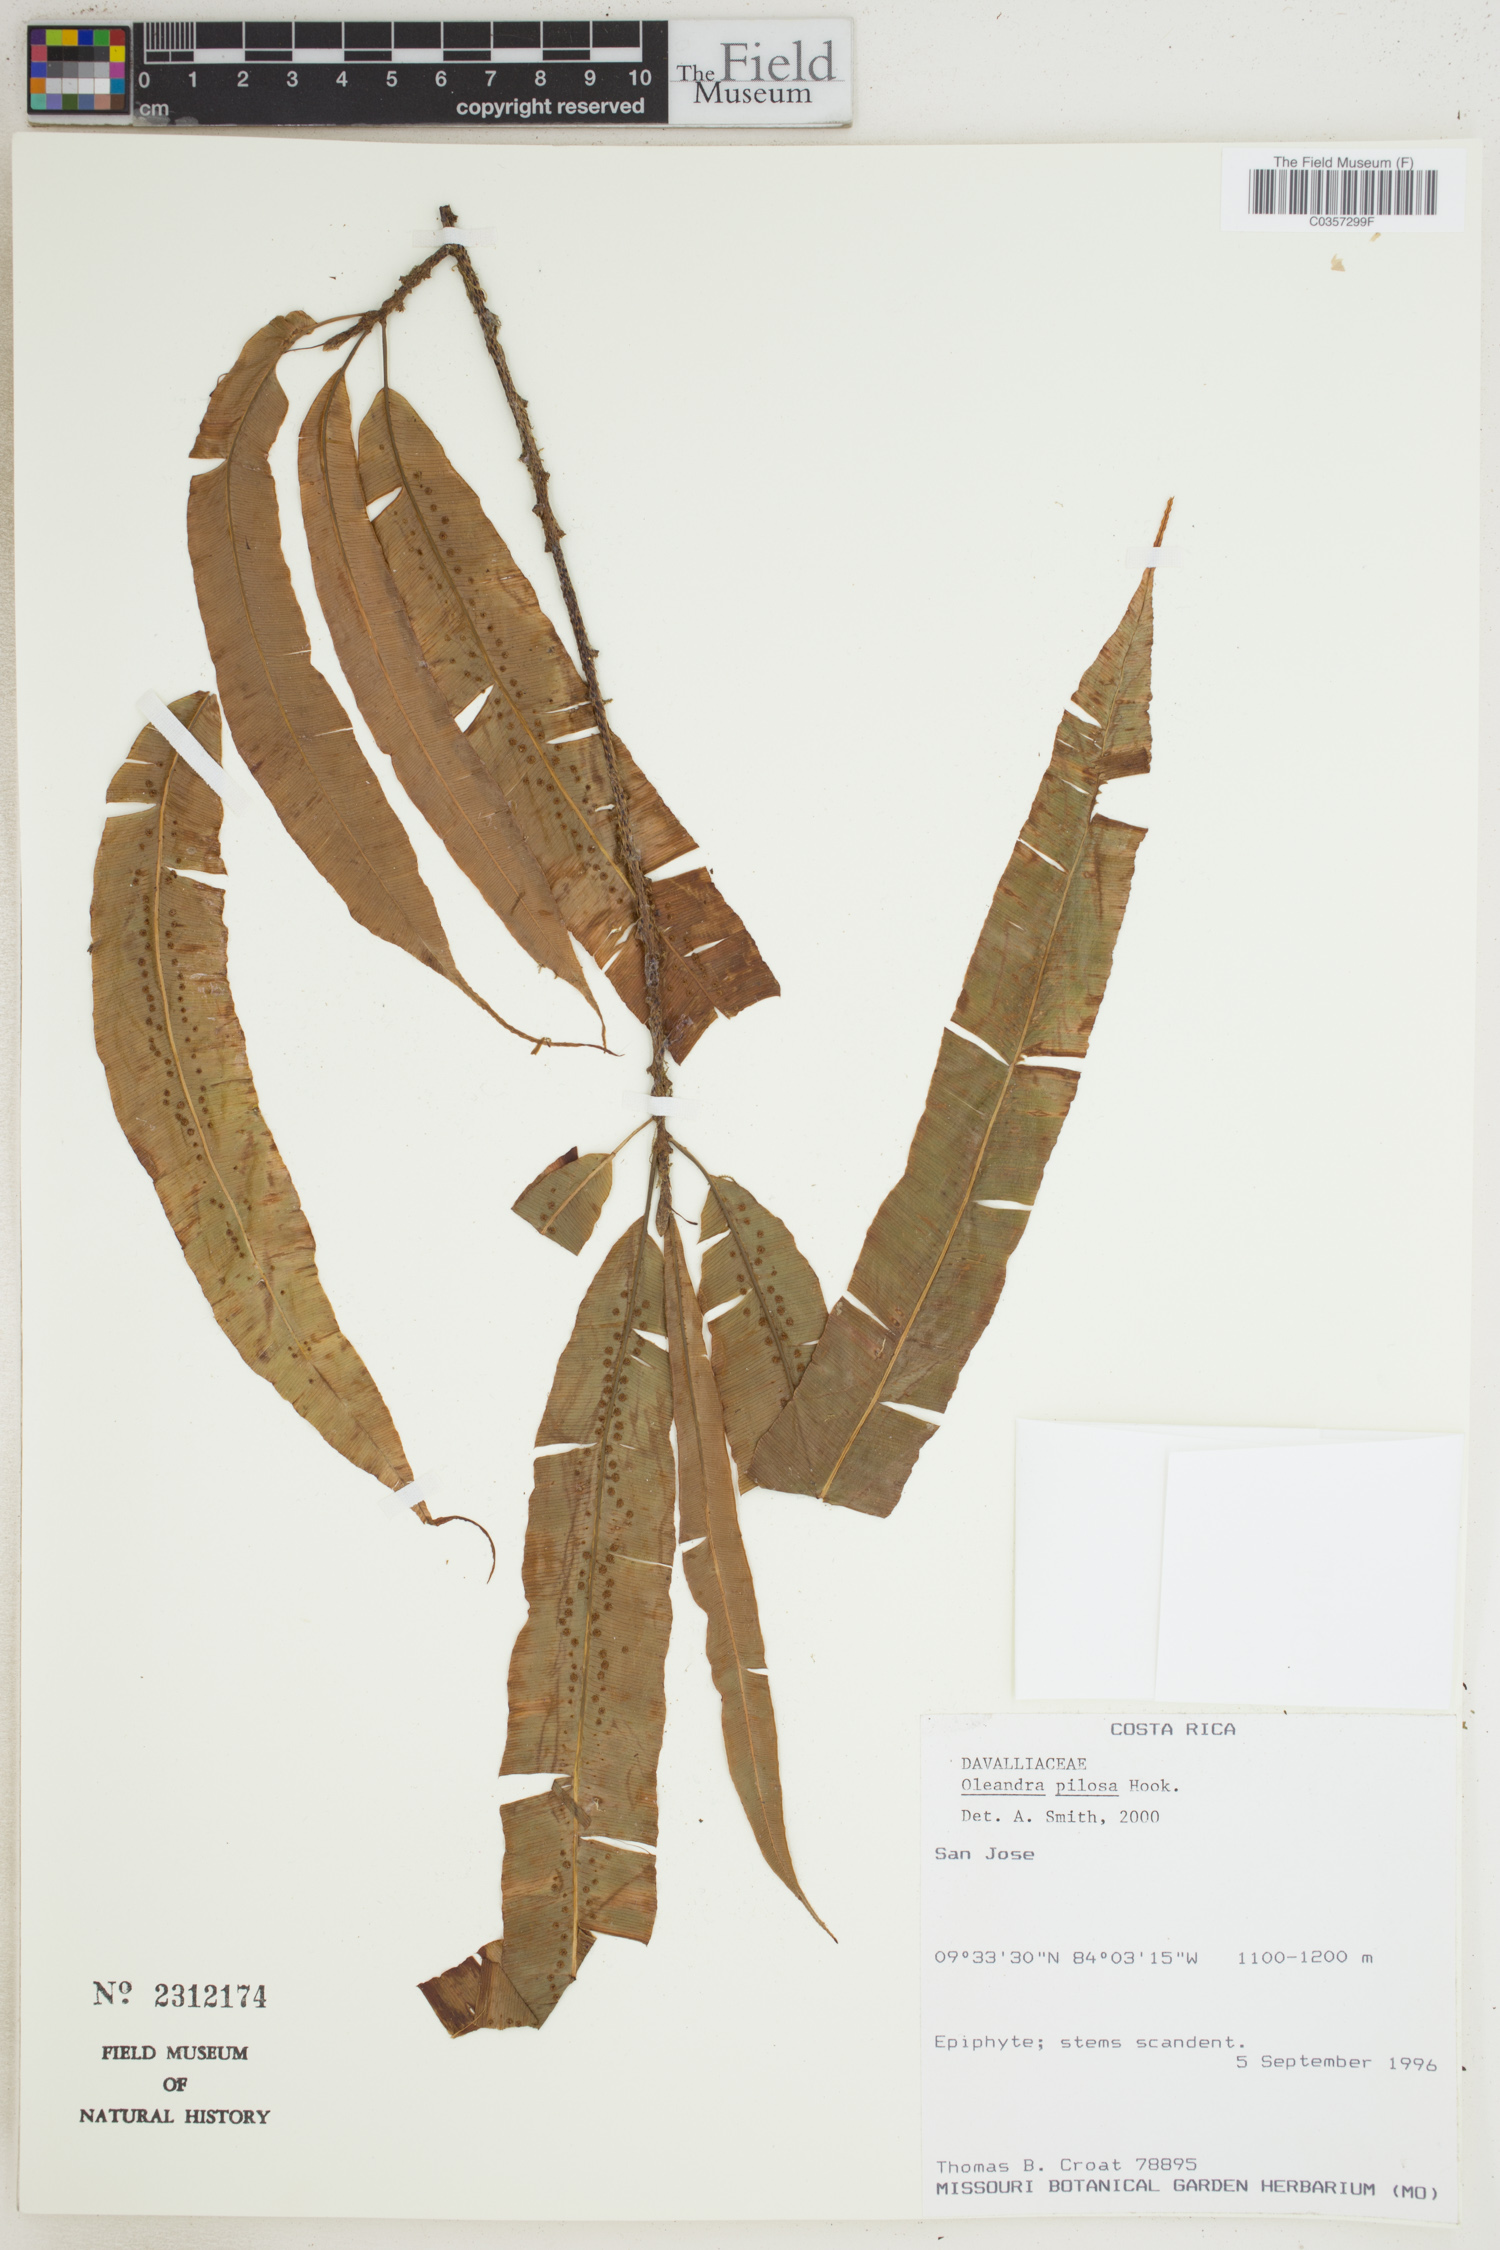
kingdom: Plantae
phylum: Tracheophyta
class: Polypodiopsida
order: Polypodiales
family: Oleandraceae
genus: Oleandra
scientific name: Oleandra pilosa
